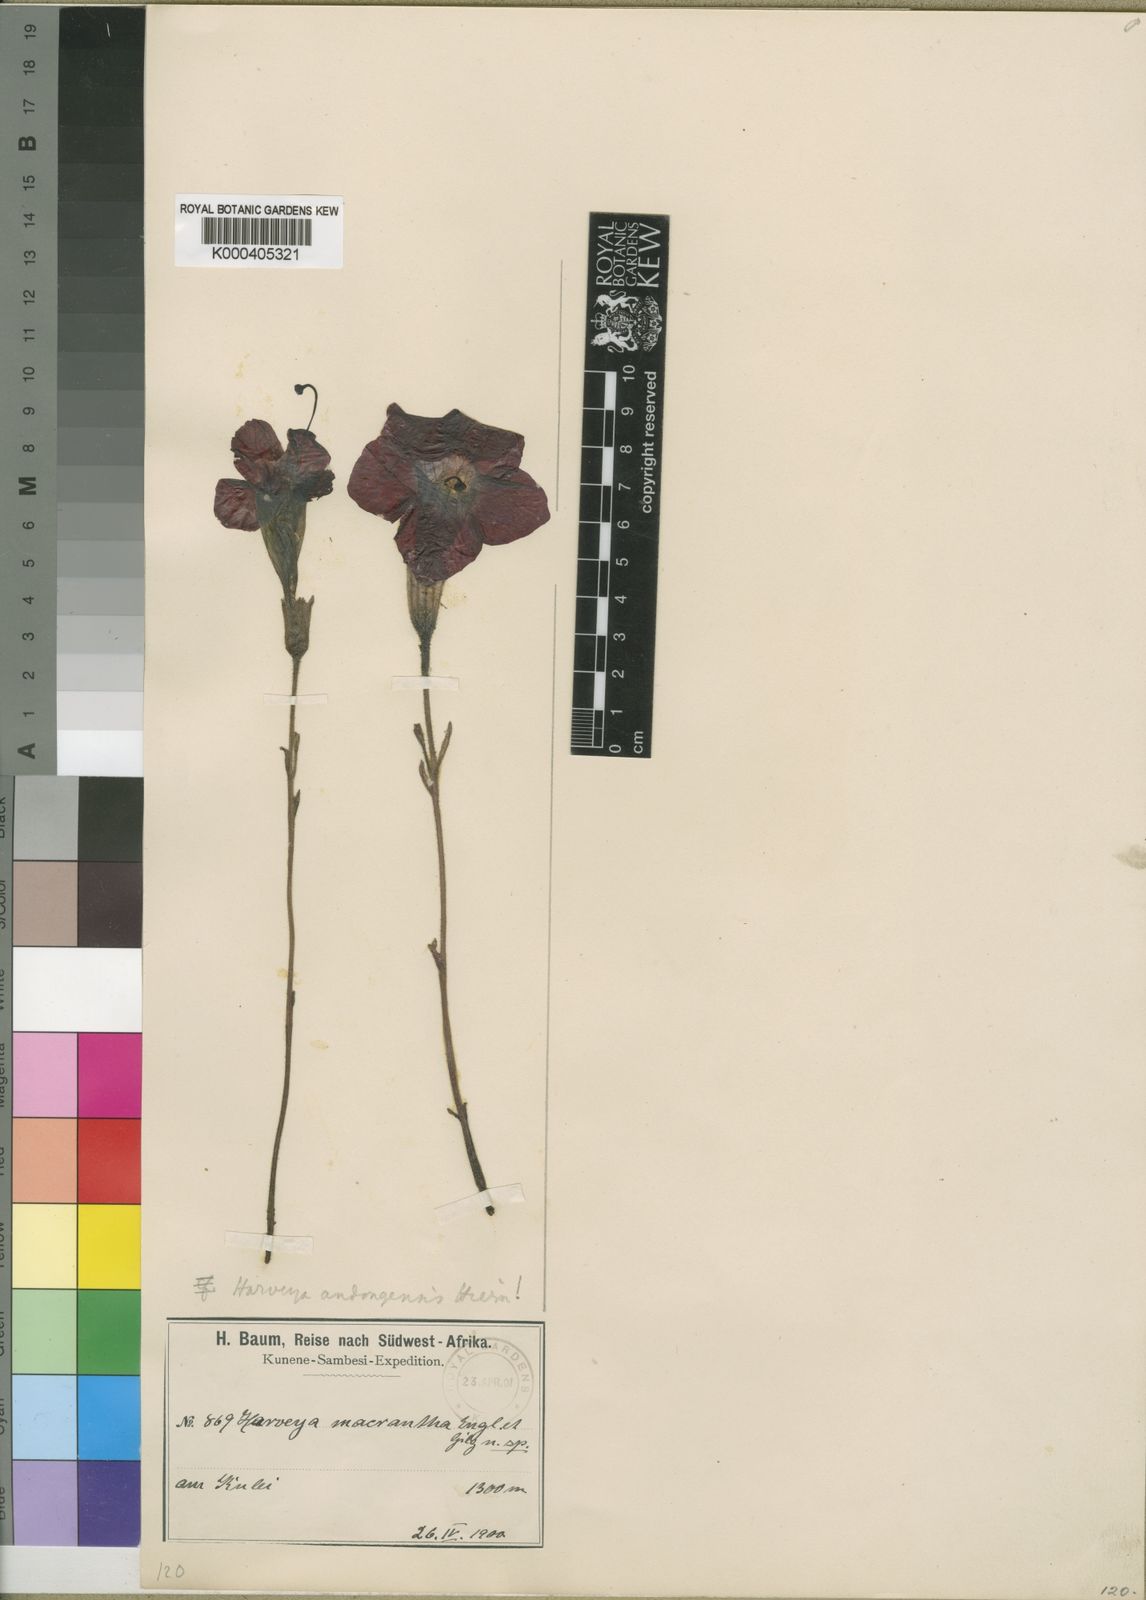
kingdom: Plantae
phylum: Tracheophyta
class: Magnoliopsida
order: Lamiales
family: Orobanchaceae
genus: Harveya
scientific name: Harveya andongensis
